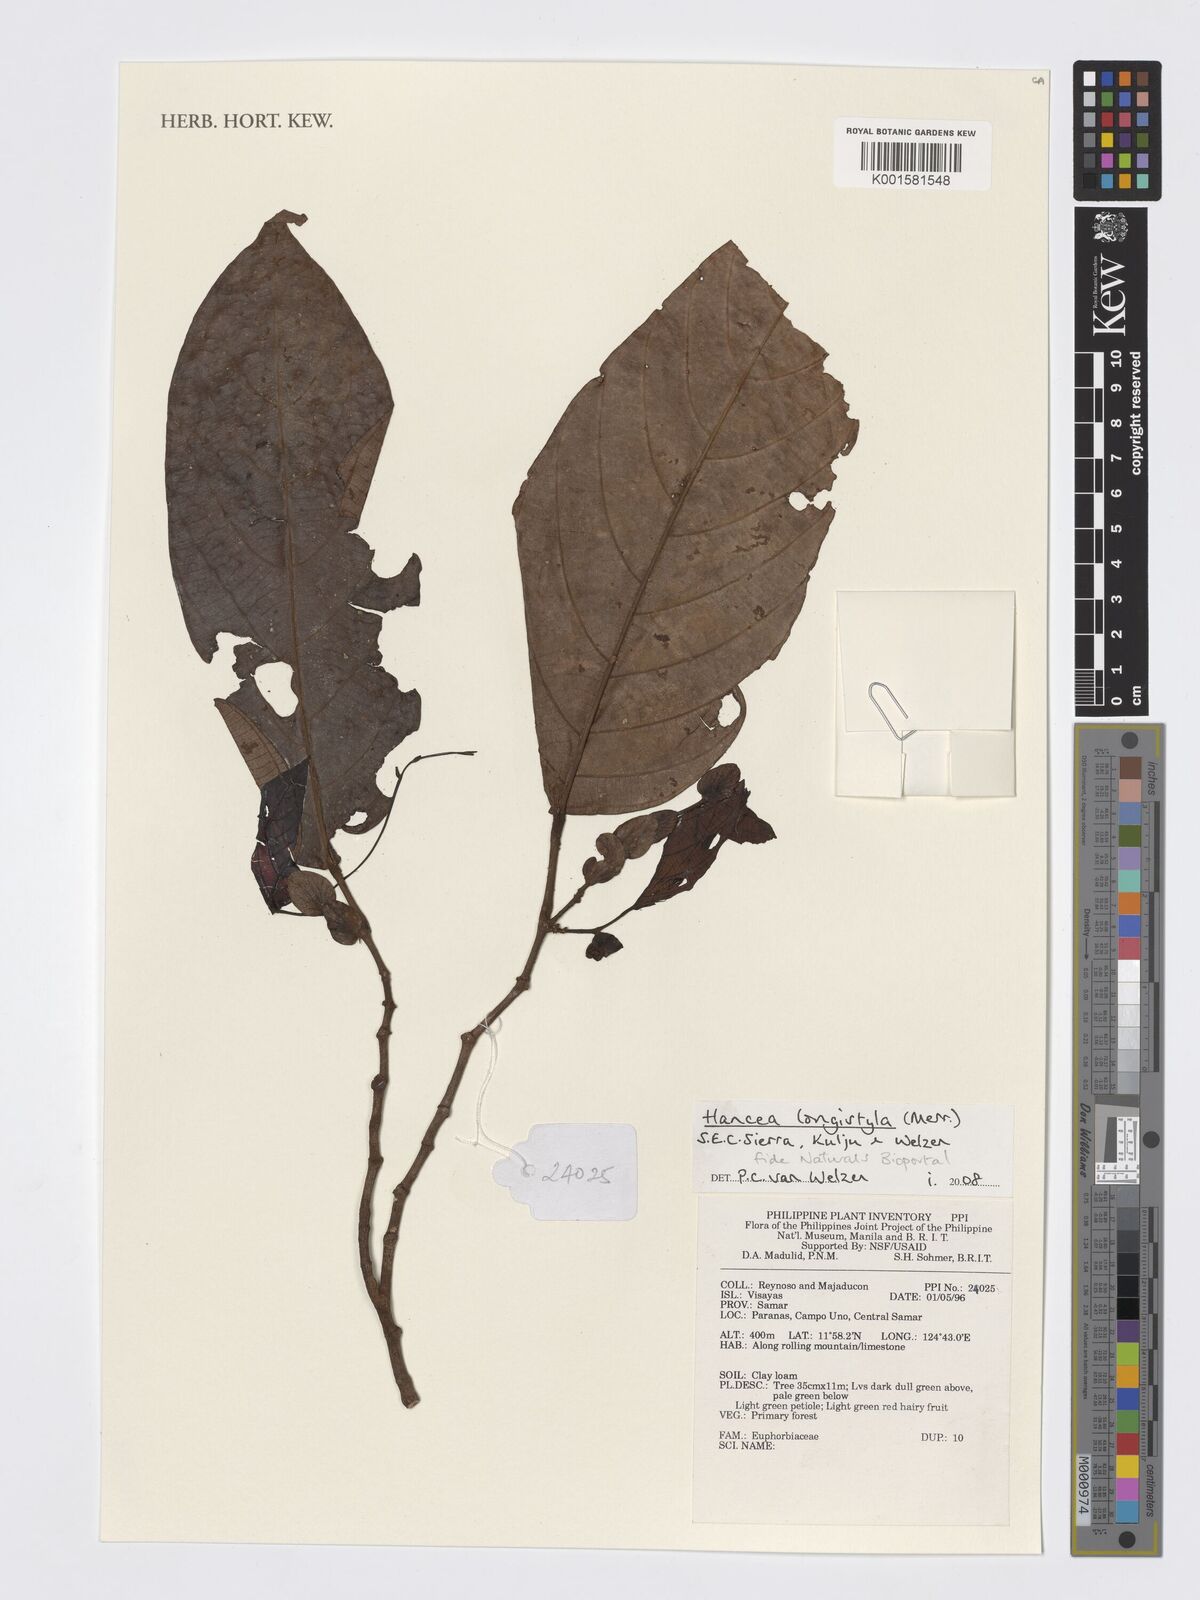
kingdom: Plantae
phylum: Tracheophyta
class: Magnoliopsida
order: Malpighiales
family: Euphorbiaceae
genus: Hancea
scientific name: Hancea longistyla
